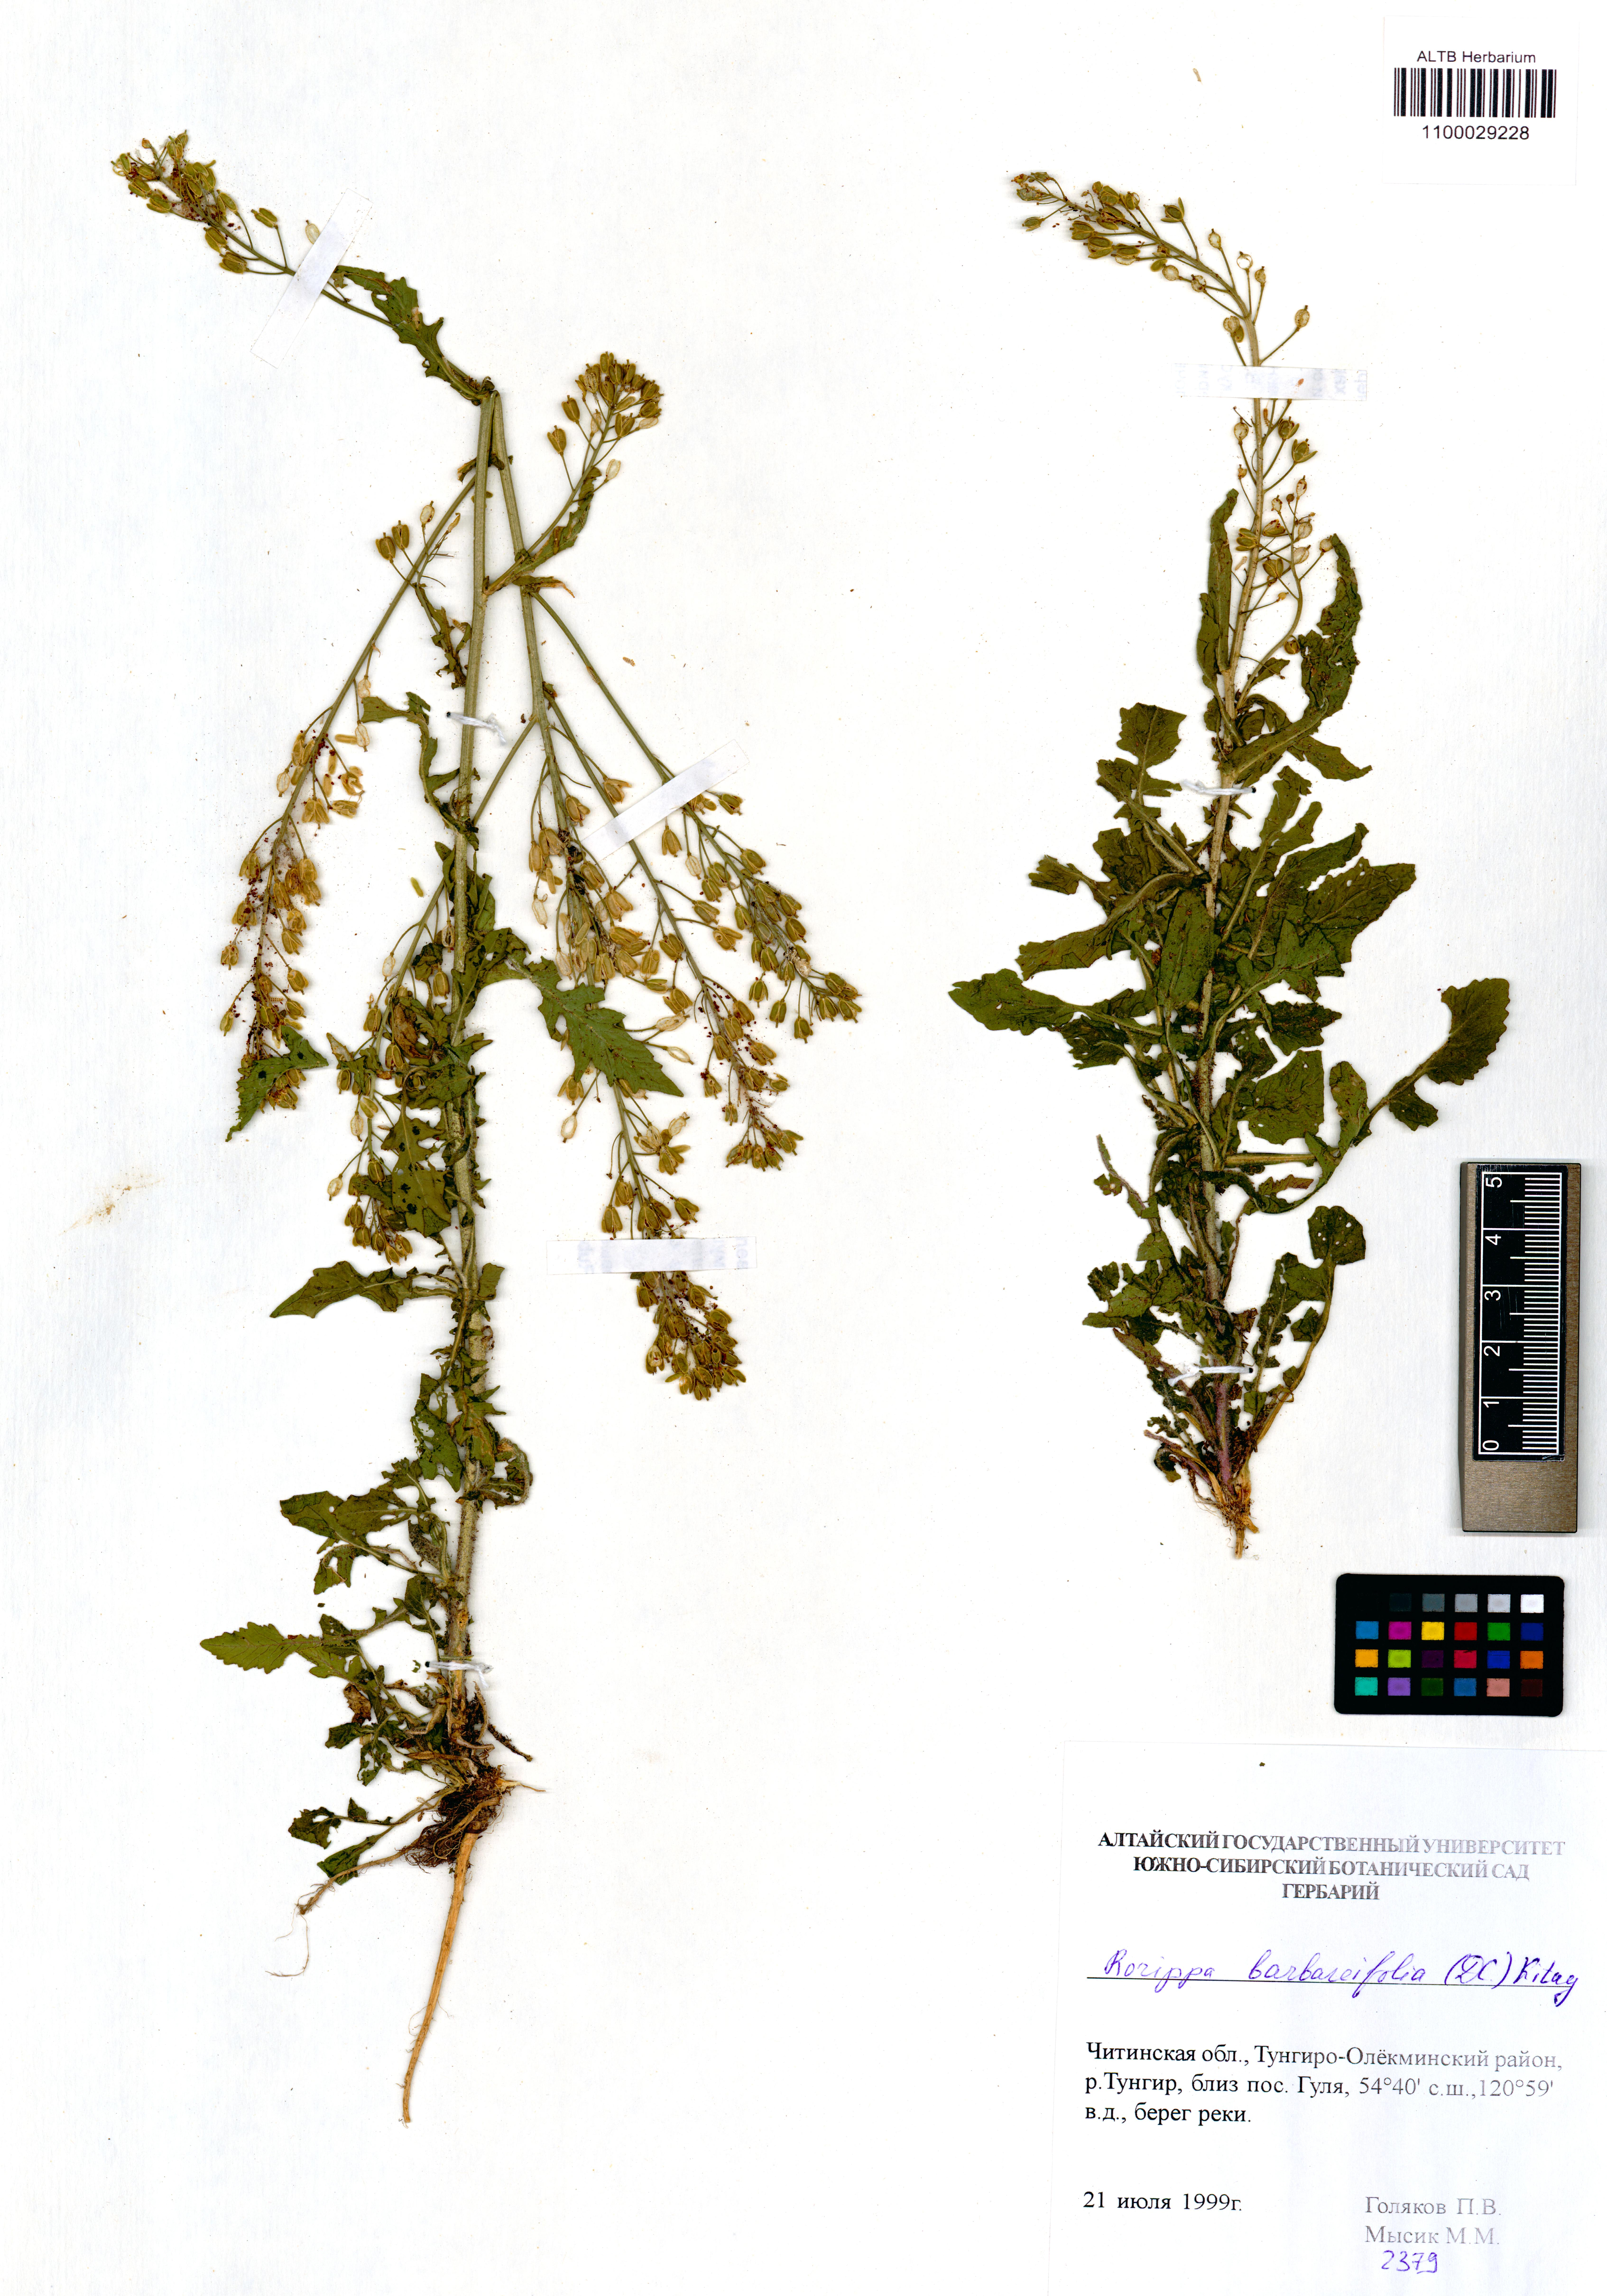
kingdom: Plantae
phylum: Tracheophyta
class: Magnoliopsida
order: Brassicales
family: Brassicaceae
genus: Rorippa
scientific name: Rorippa barbaraefolia
